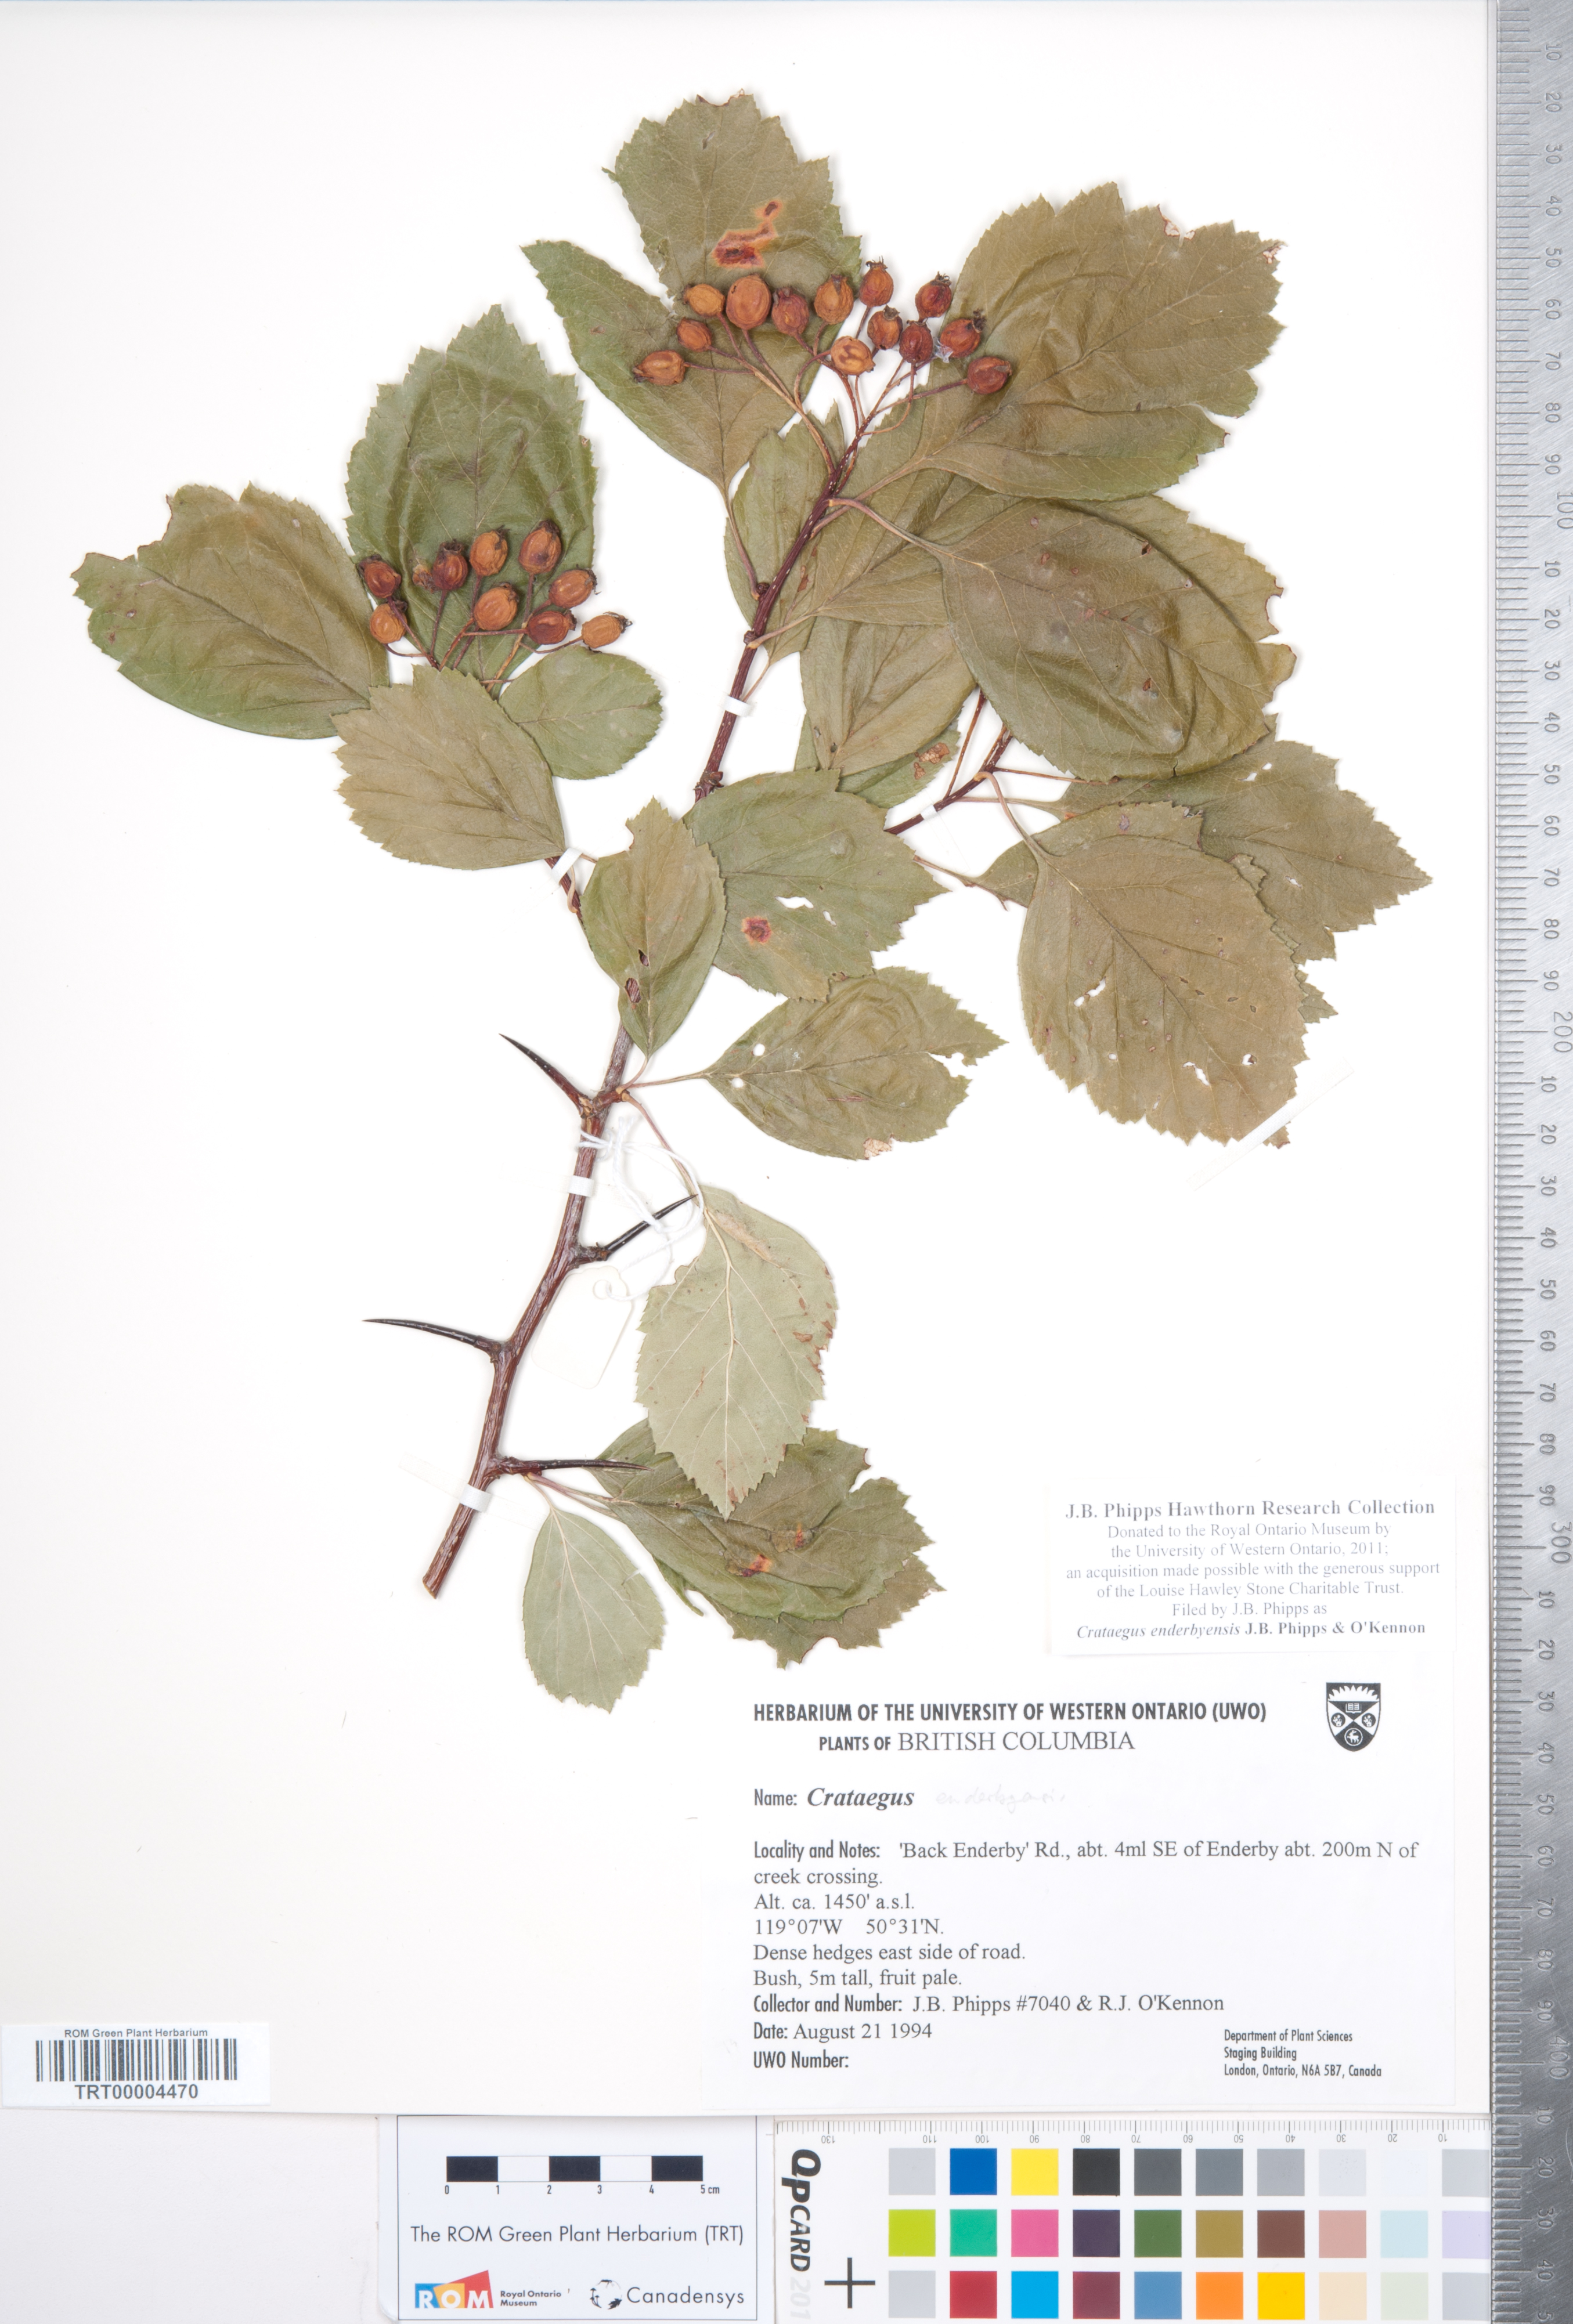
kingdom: Plantae
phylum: Tracheophyta
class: Magnoliopsida
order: Rosales
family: Rosaceae
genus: Crataegus
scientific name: Crataegus enderbyensis
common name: Enderby hawthorn
